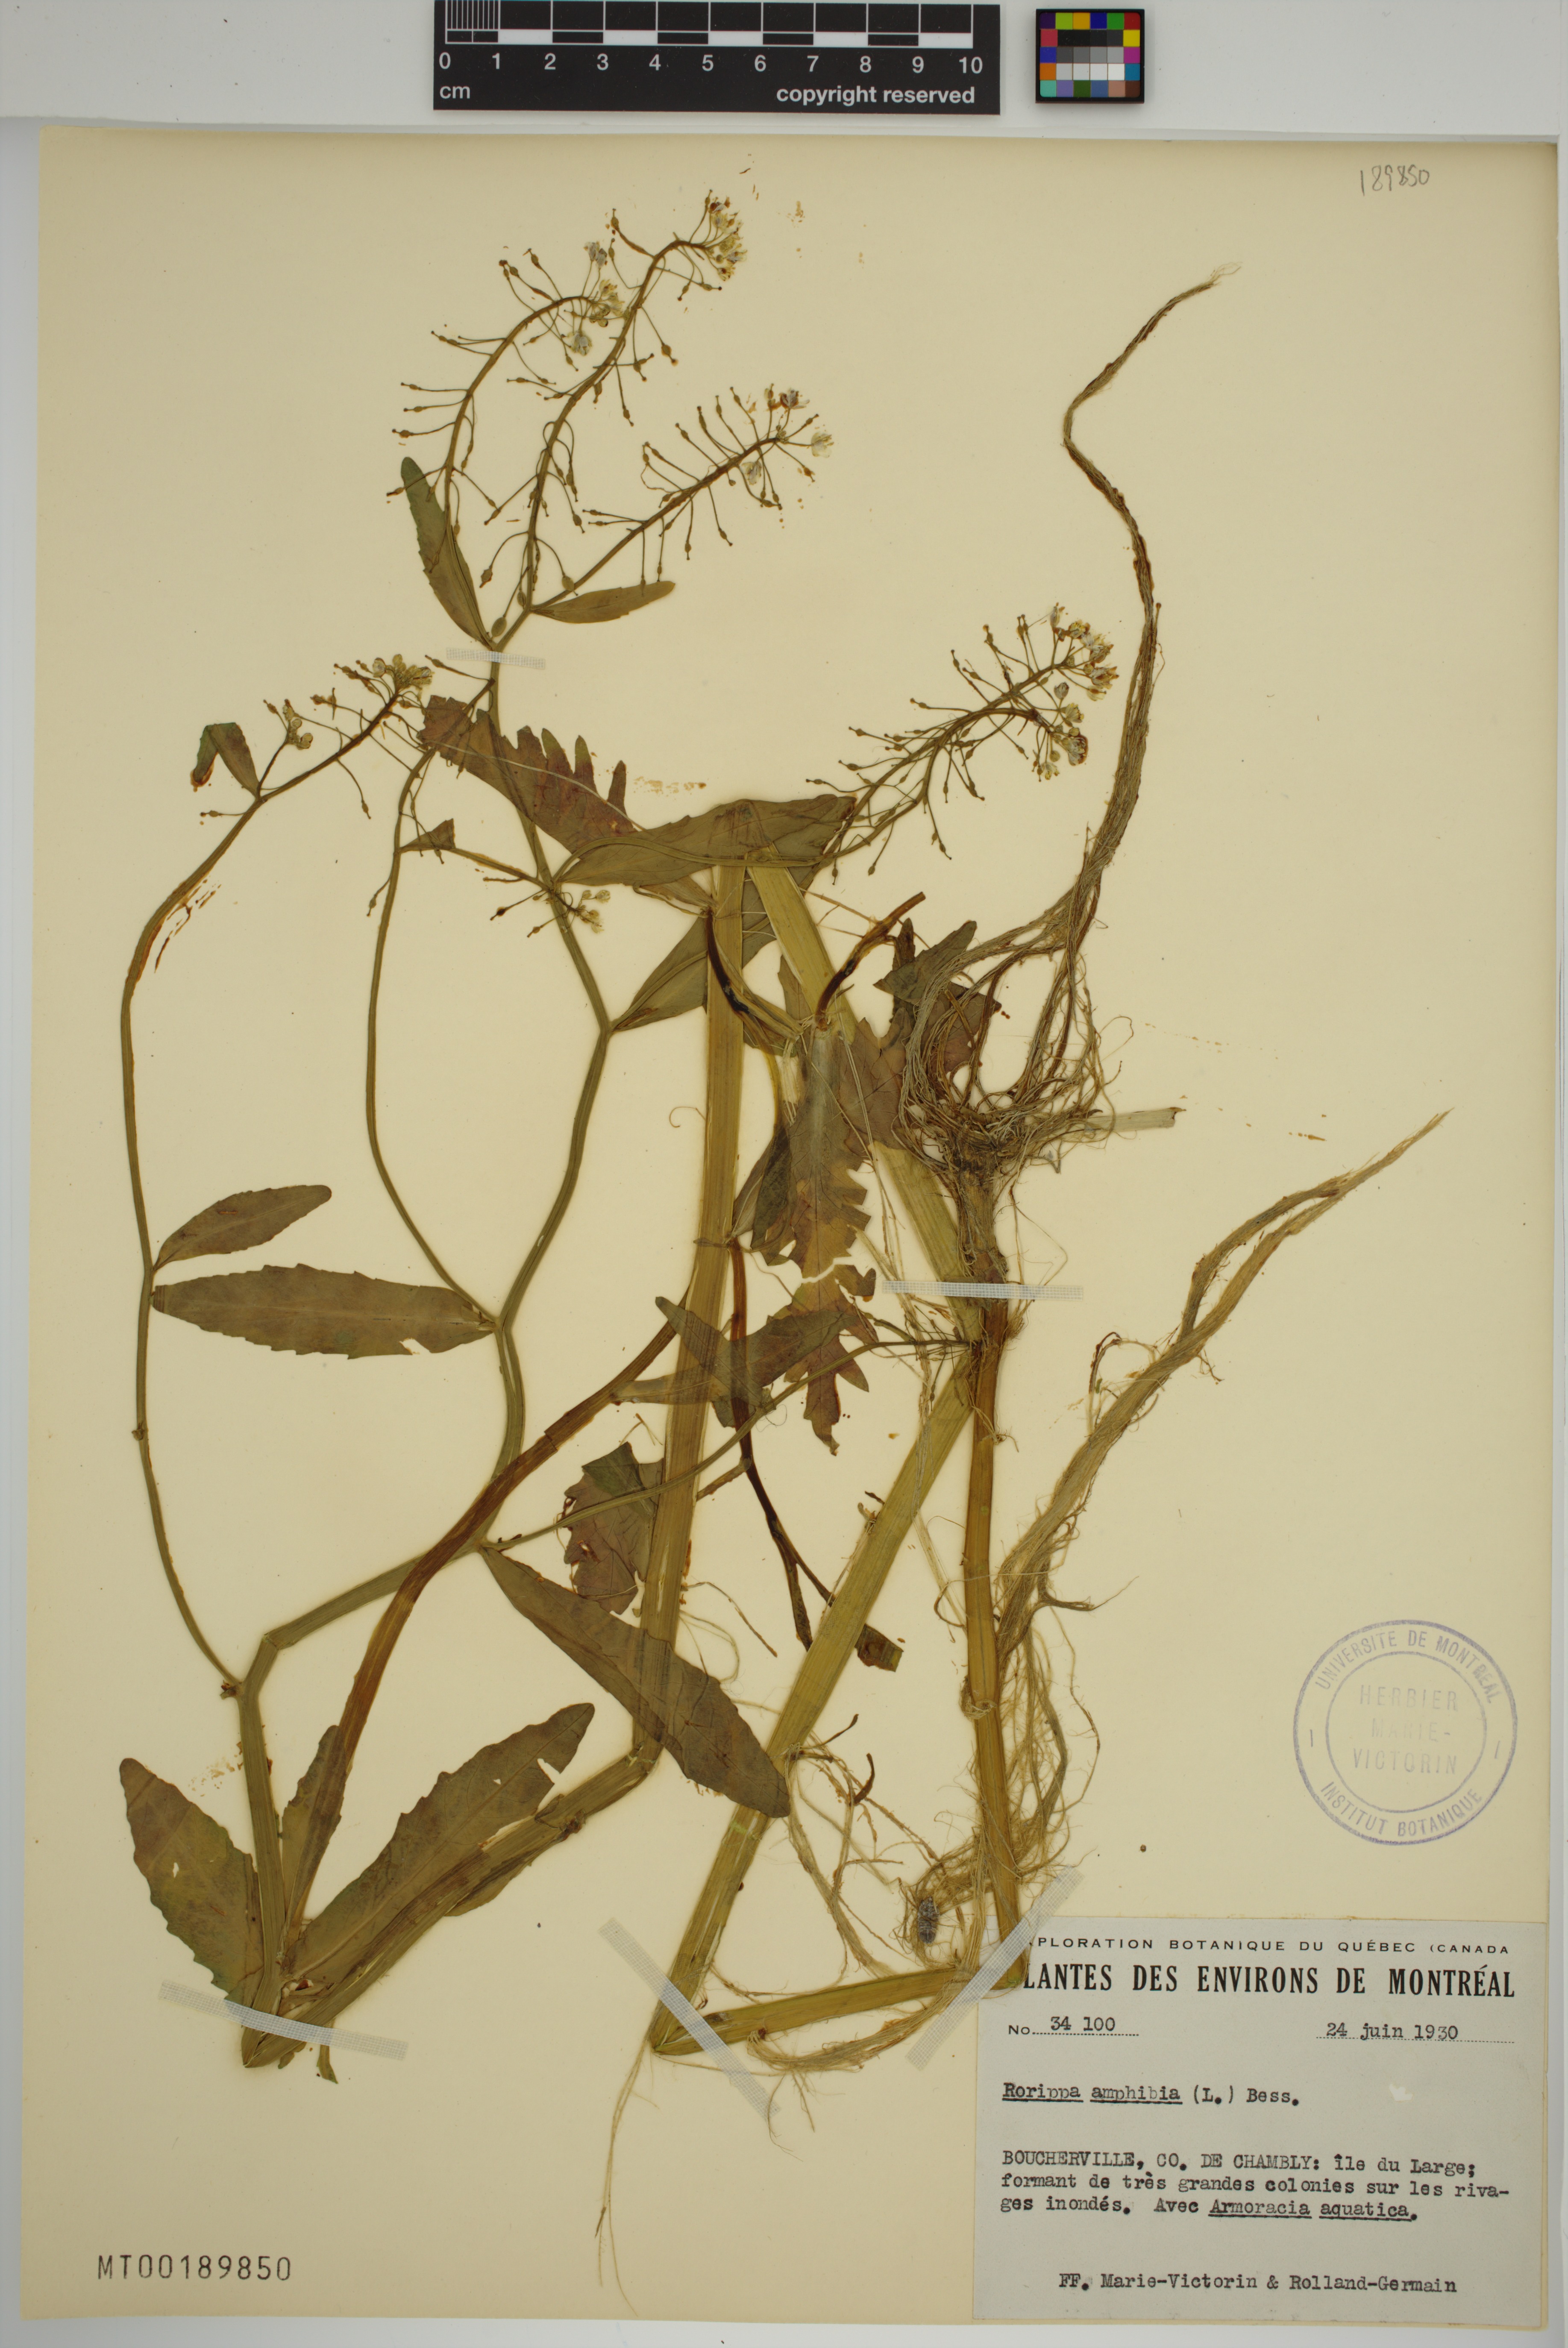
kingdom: Plantae
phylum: Tracheophyta
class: Magnoliopsida
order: Brassicales
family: Brassicaceae
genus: Rorippa
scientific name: Rorippa amphibia
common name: Great yellow-cress
